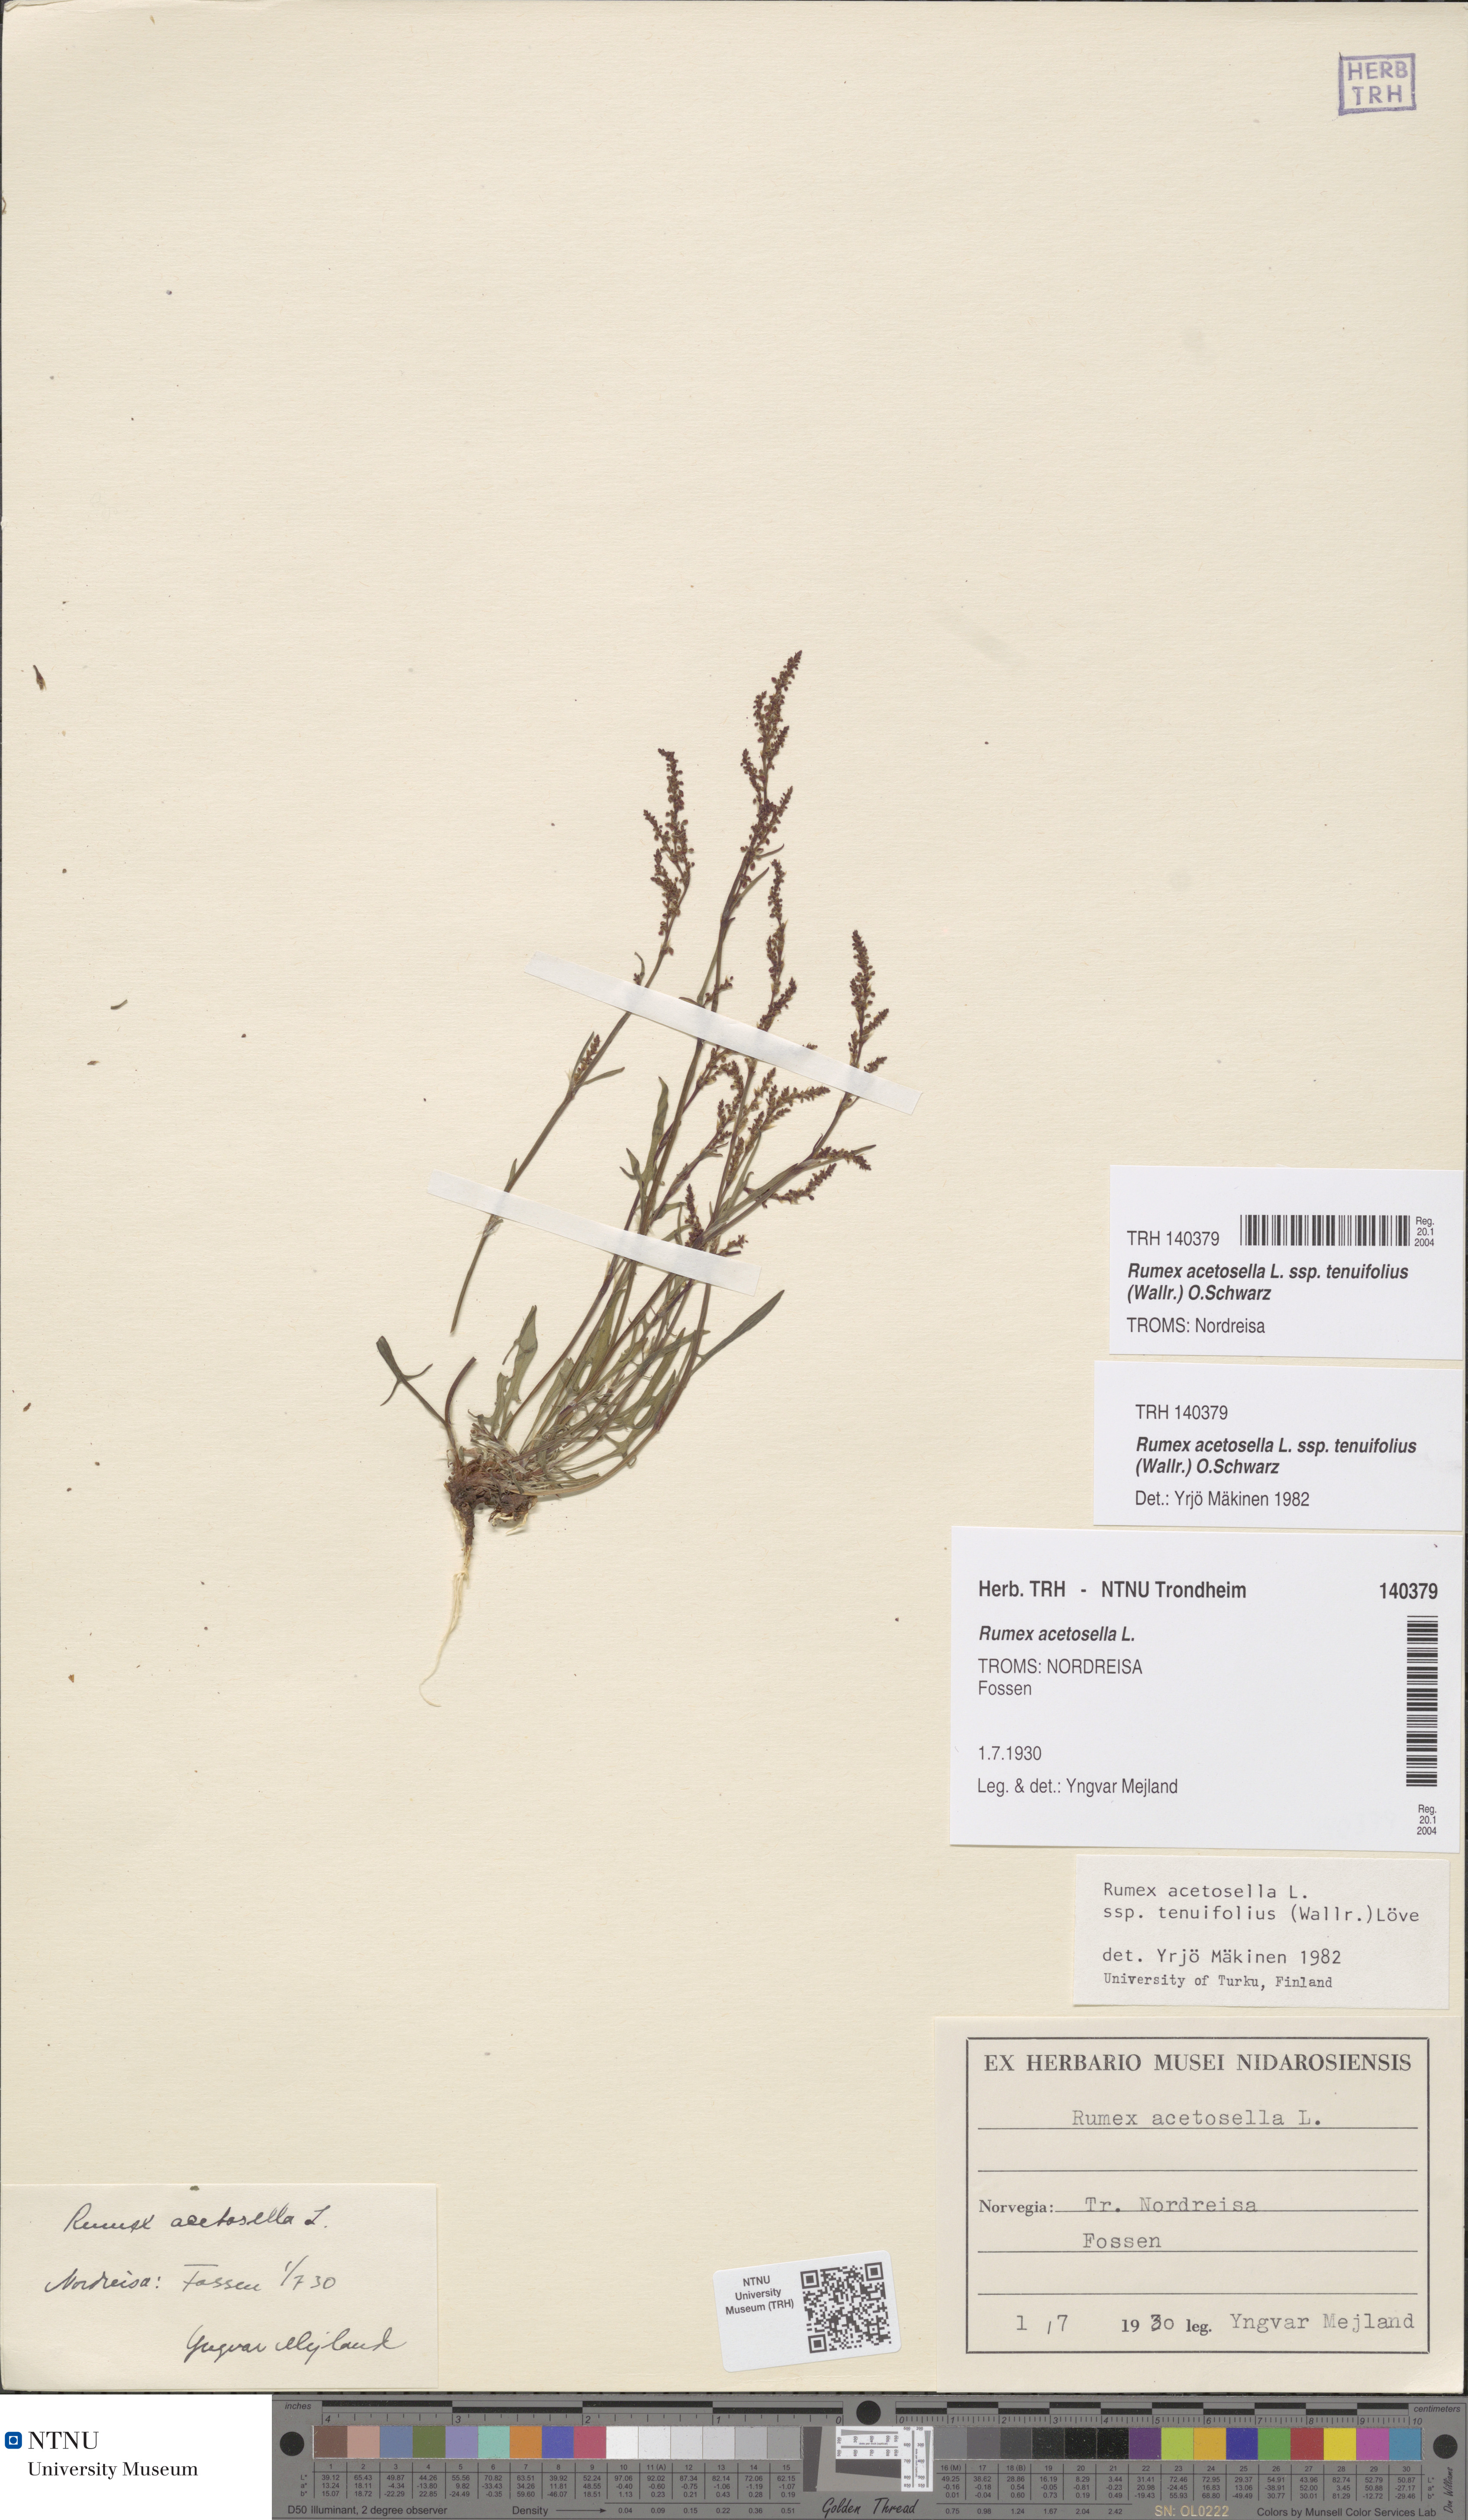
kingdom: Plantae
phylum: Tracheophyta
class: Magnoliopsida
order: Caryophyllales
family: Polygonaceae
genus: Rumex
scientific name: Rumex acetosella
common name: Common sheep sorrel
